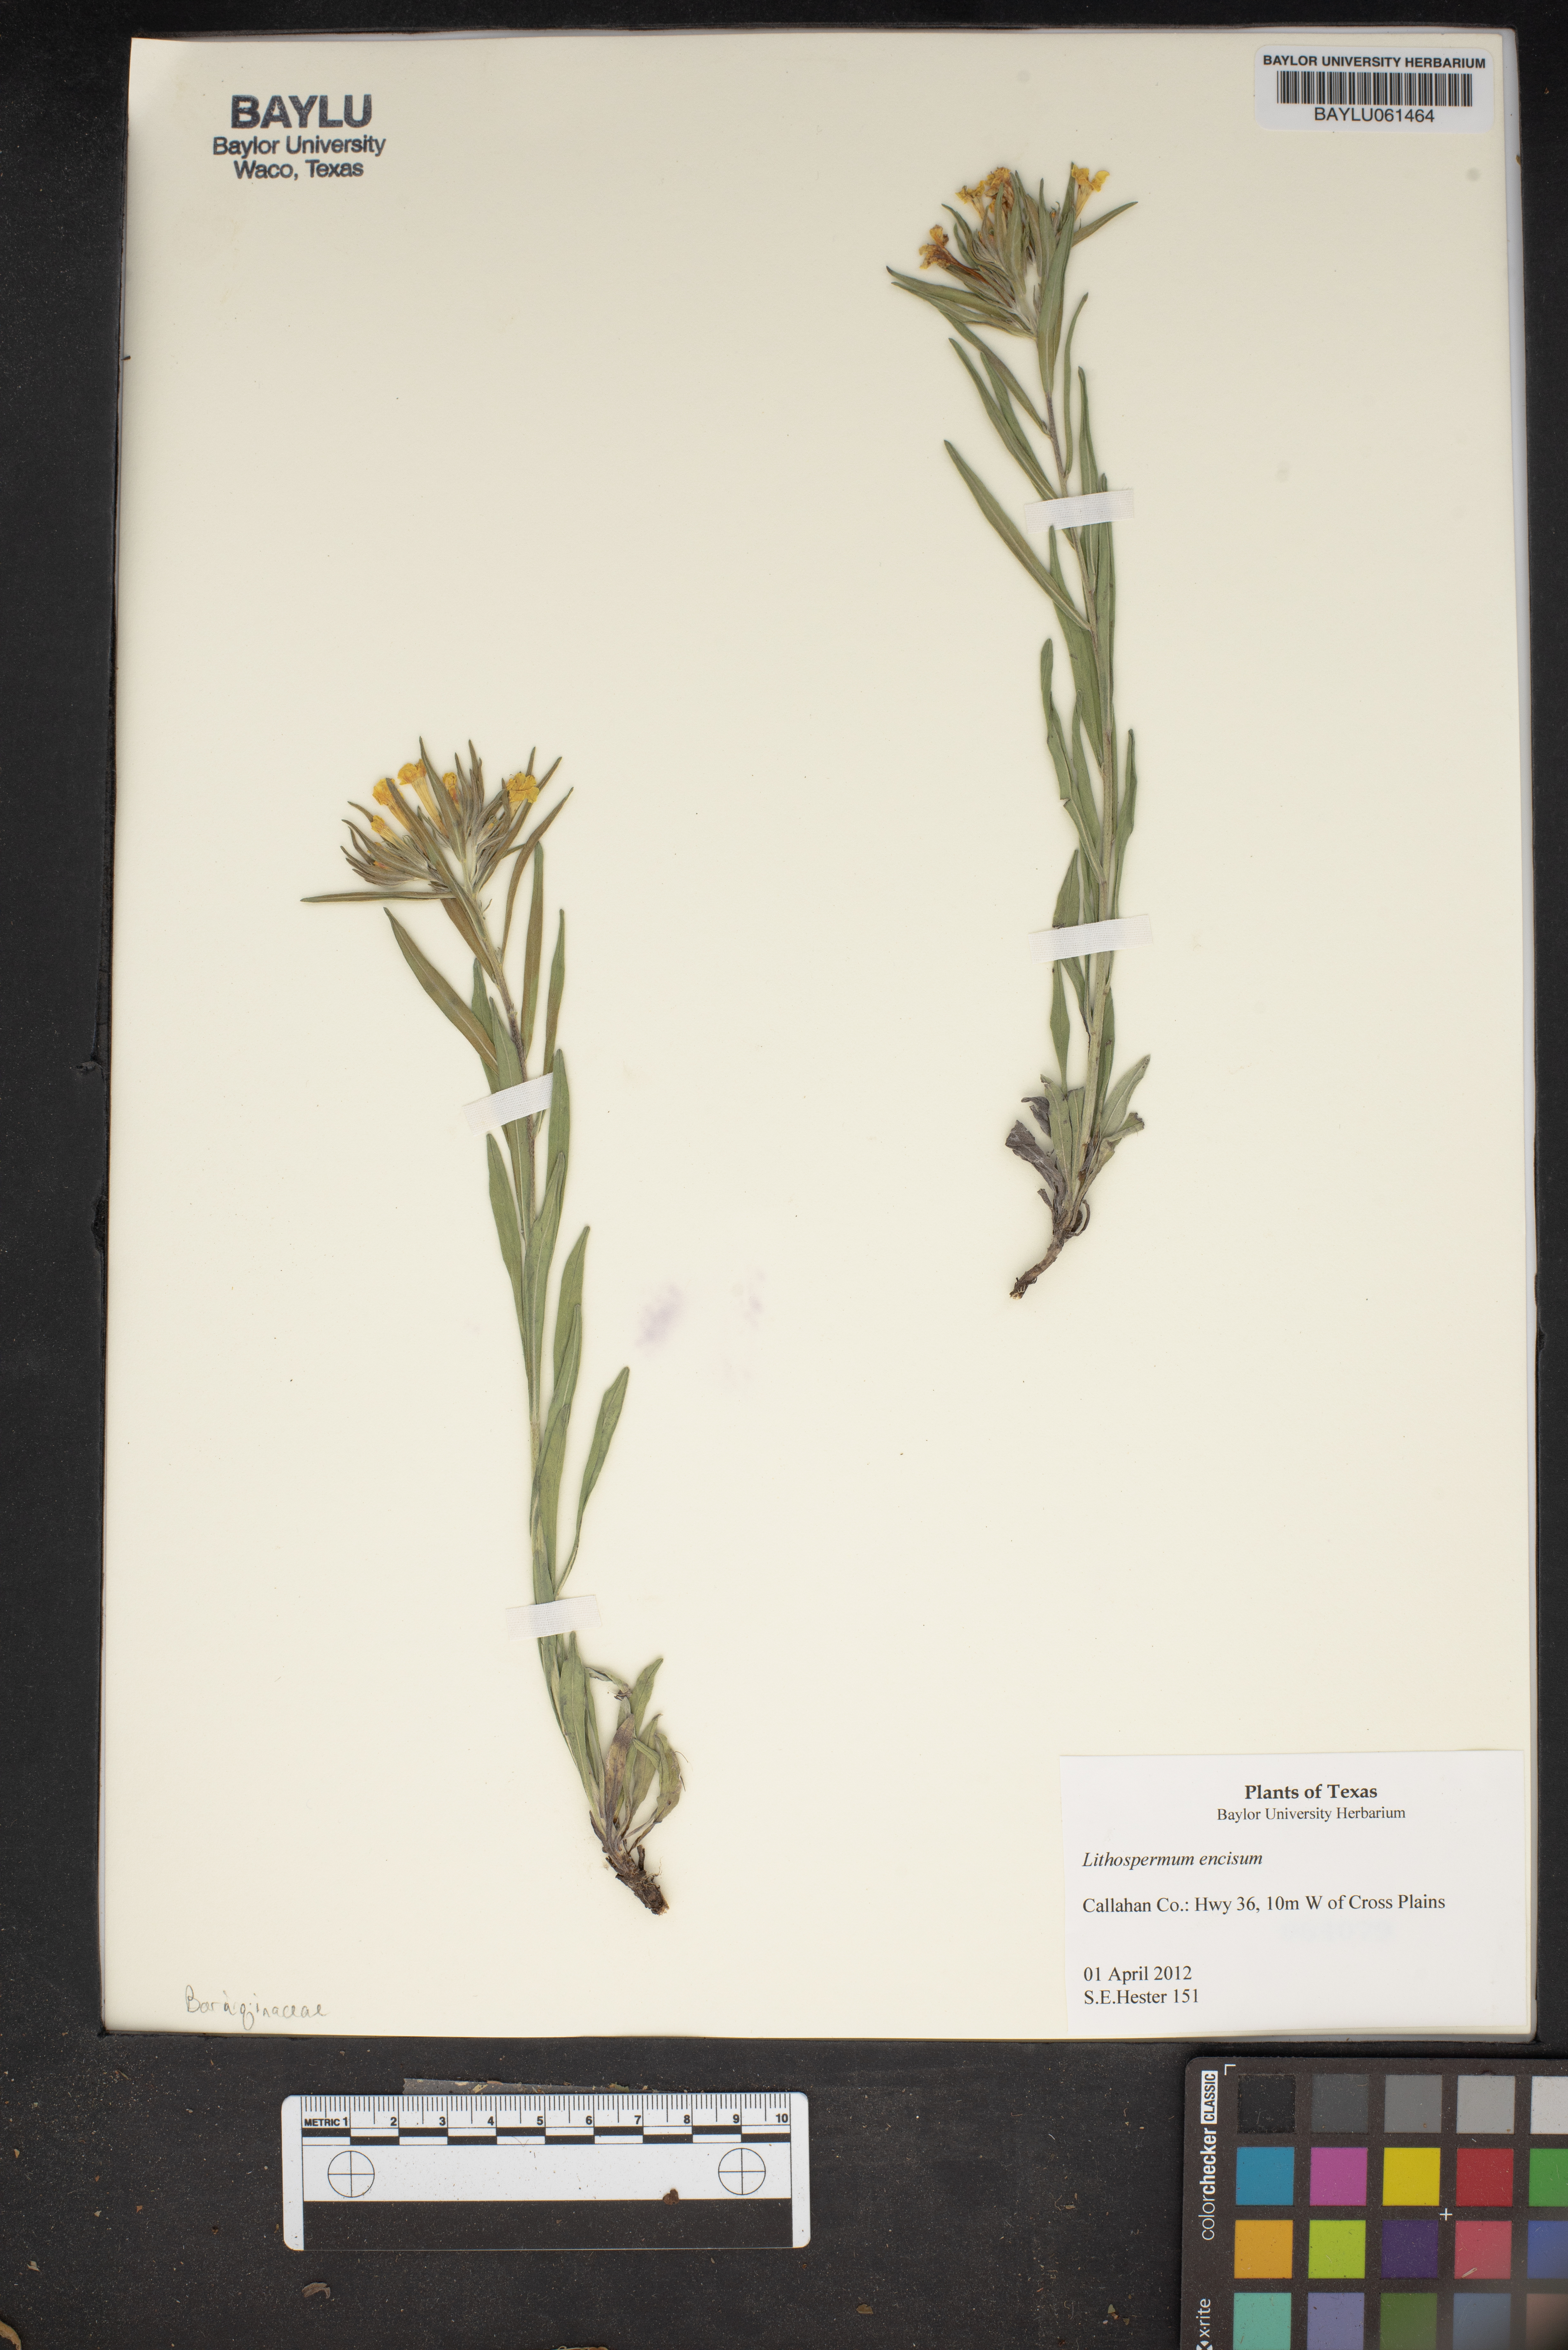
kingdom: Plantae
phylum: Tracheophyta
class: Magnoliopsida
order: Boraginales
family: Boraginaceae
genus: Lithospermum
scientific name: Lithospermum incisum
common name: Fringed gromwell
